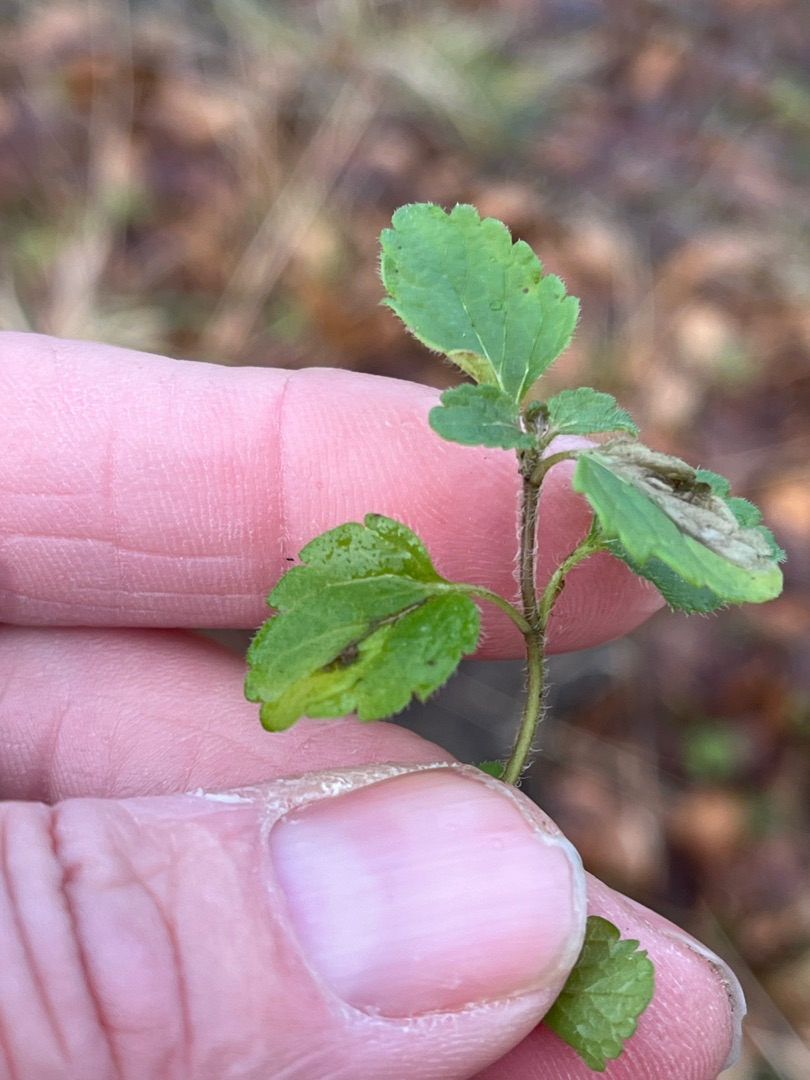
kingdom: Plantae
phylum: Tracheophyta
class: Magnoliopsida
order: Lamiales
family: Plantaginaceae
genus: Veronica
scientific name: Veronica chamaedrys
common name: Tveskægget ærenpris
